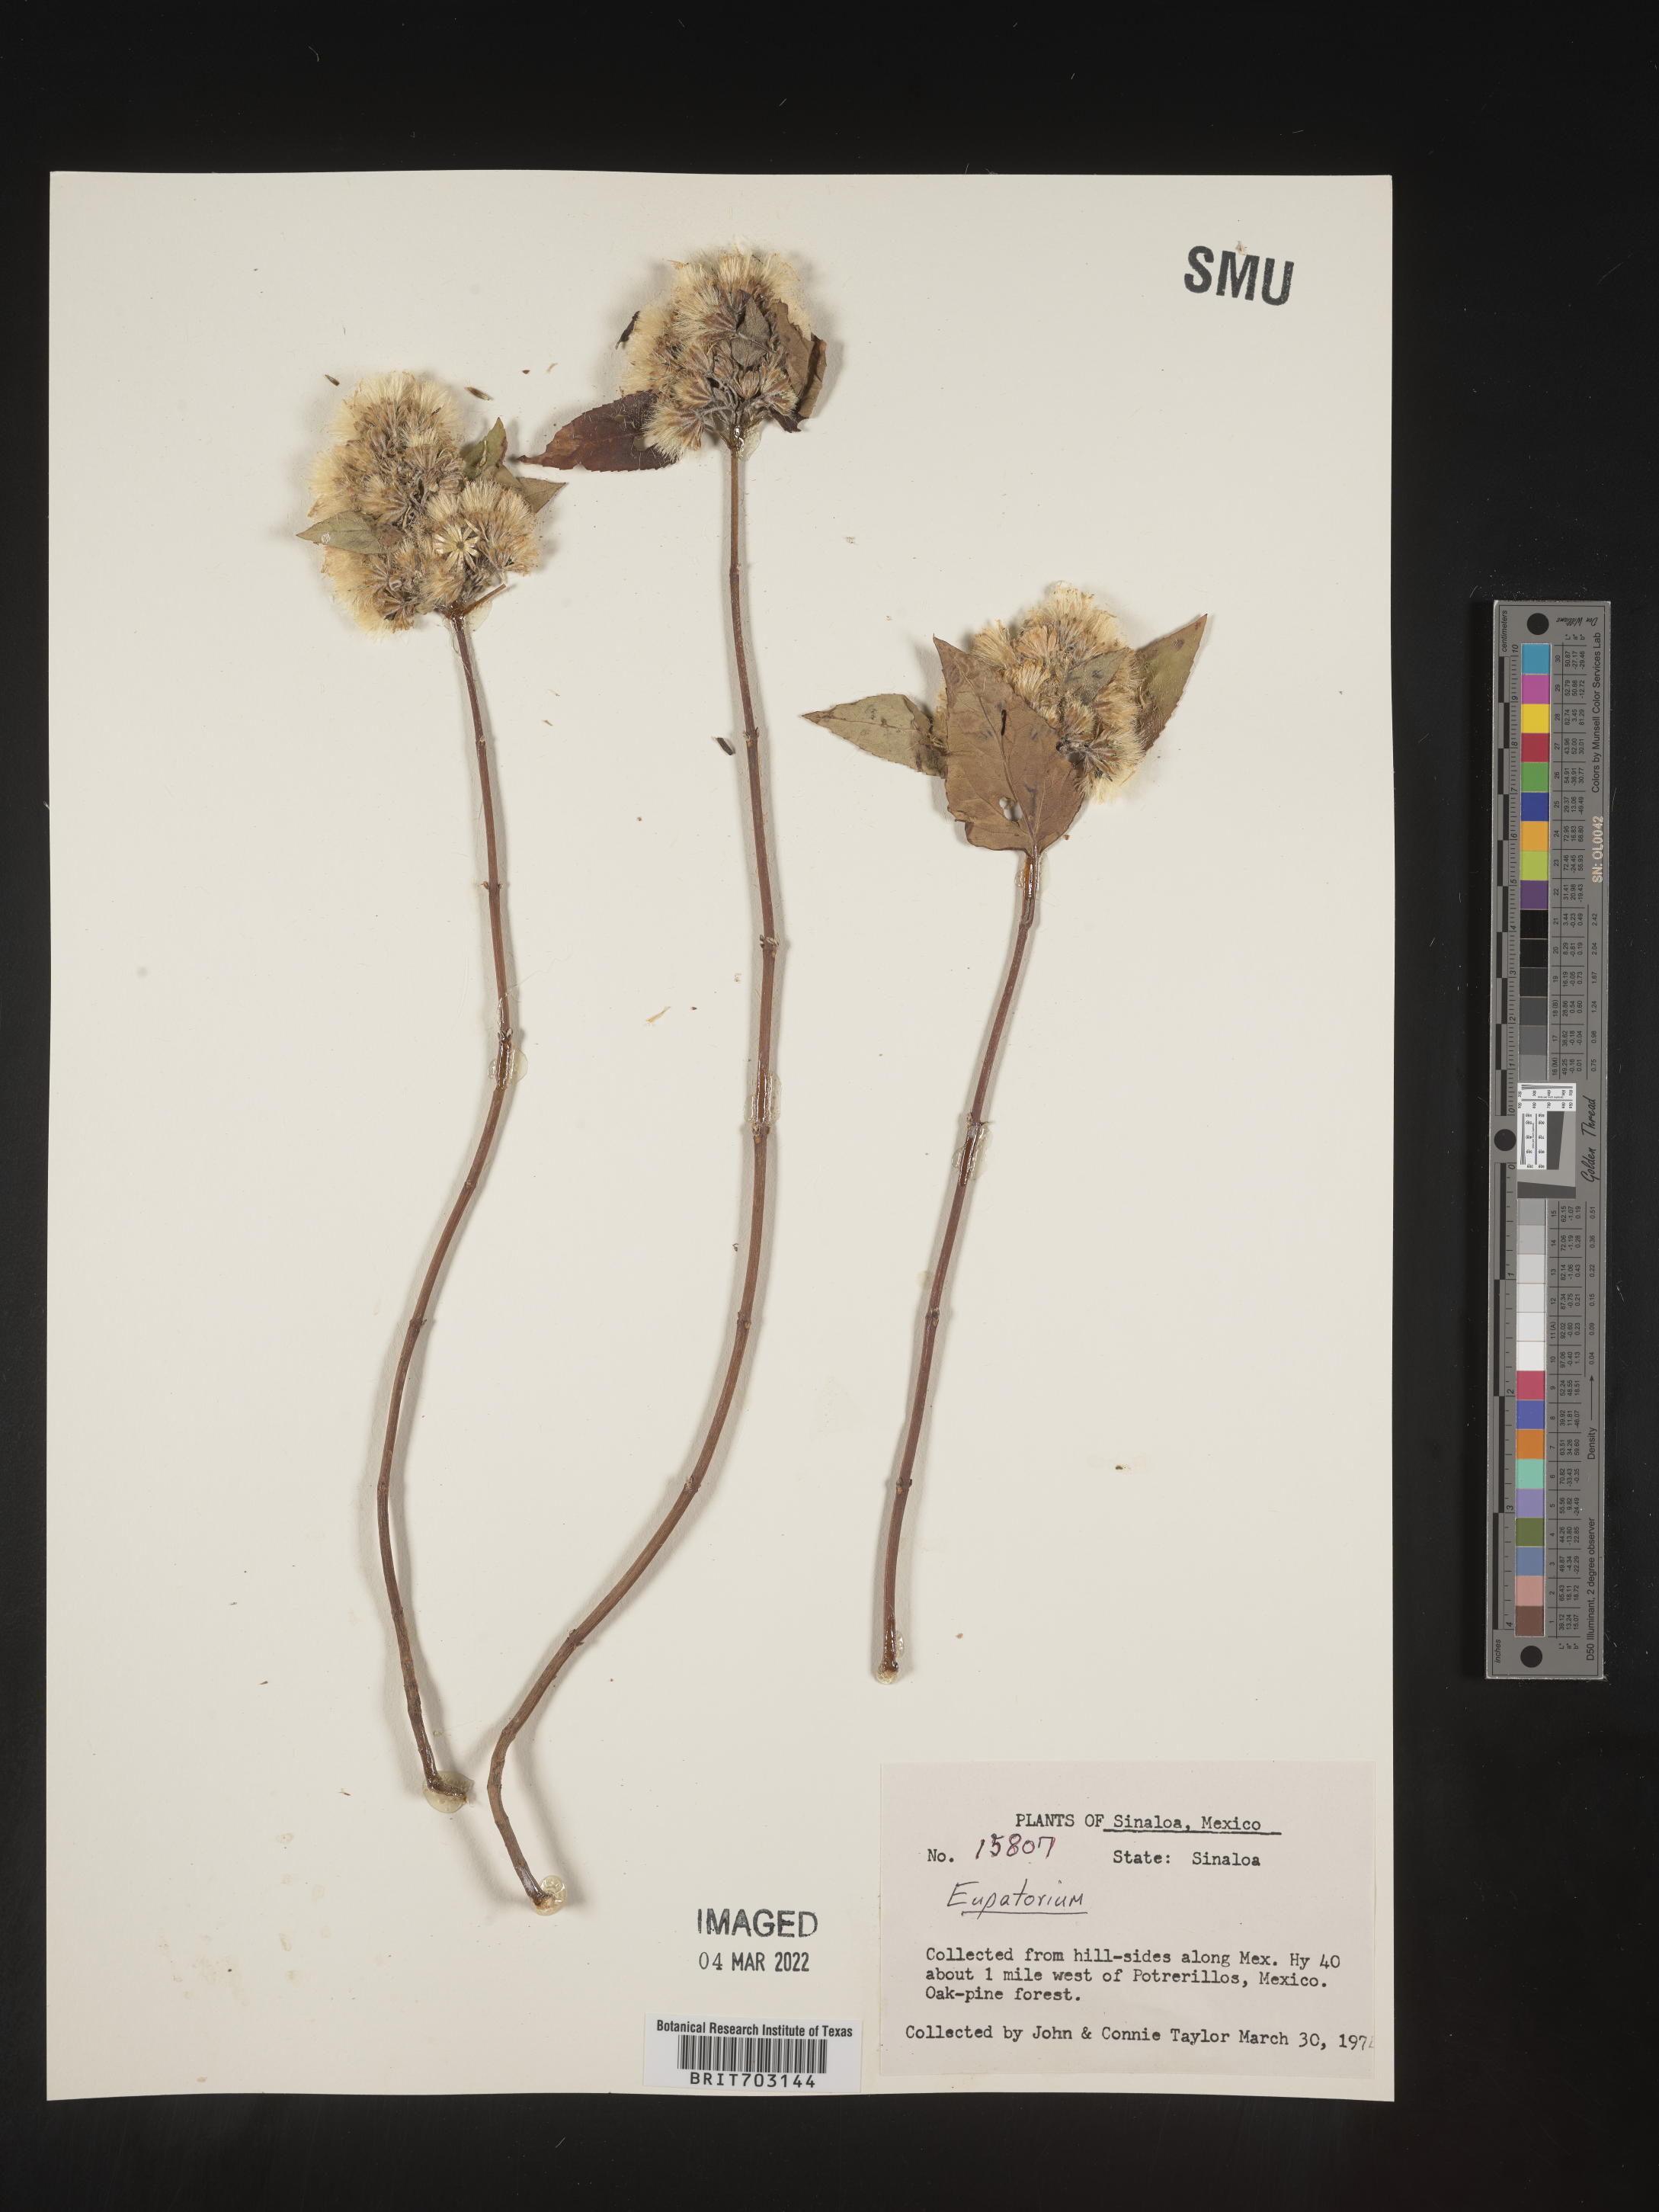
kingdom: Plantae
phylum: Tracheophyta
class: Magnoliopsida
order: Asterales
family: Asteraceae
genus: Eupatorium
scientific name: Eupatorium
